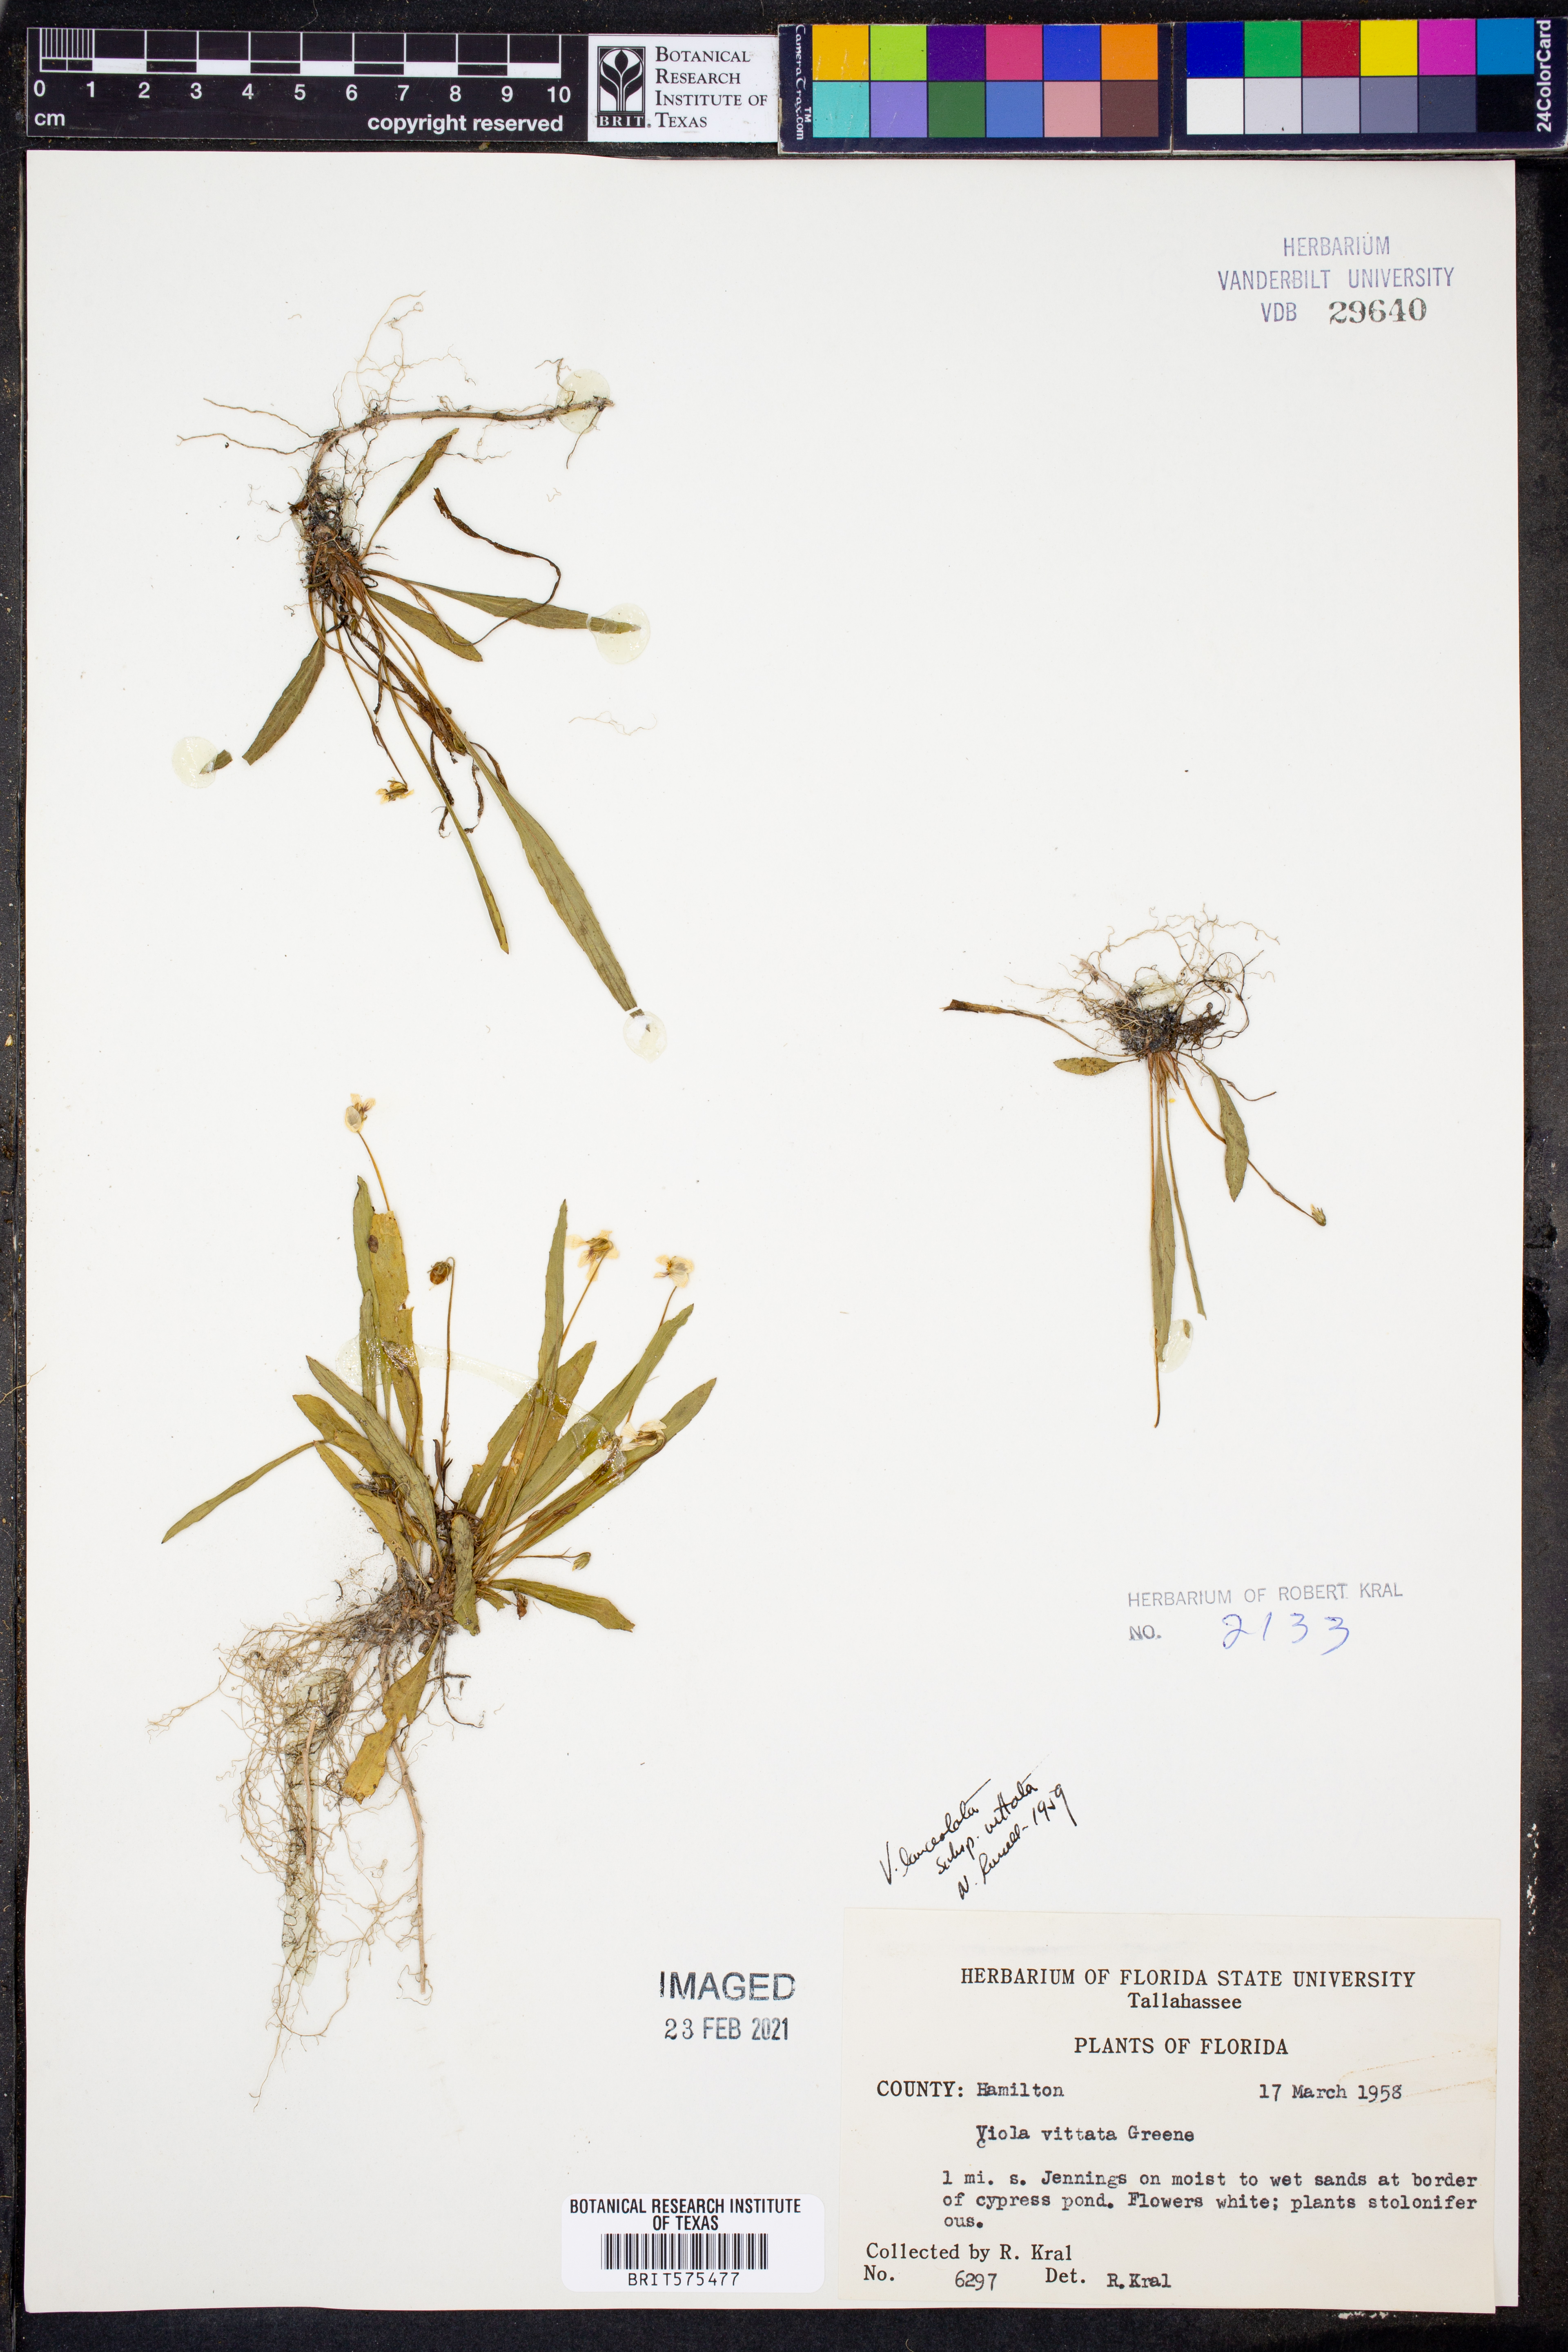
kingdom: Plantae
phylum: Tracheophyta
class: Magnoliopsida
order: Malpighiales
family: Violaceae
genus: Viola
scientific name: Viola vittata
